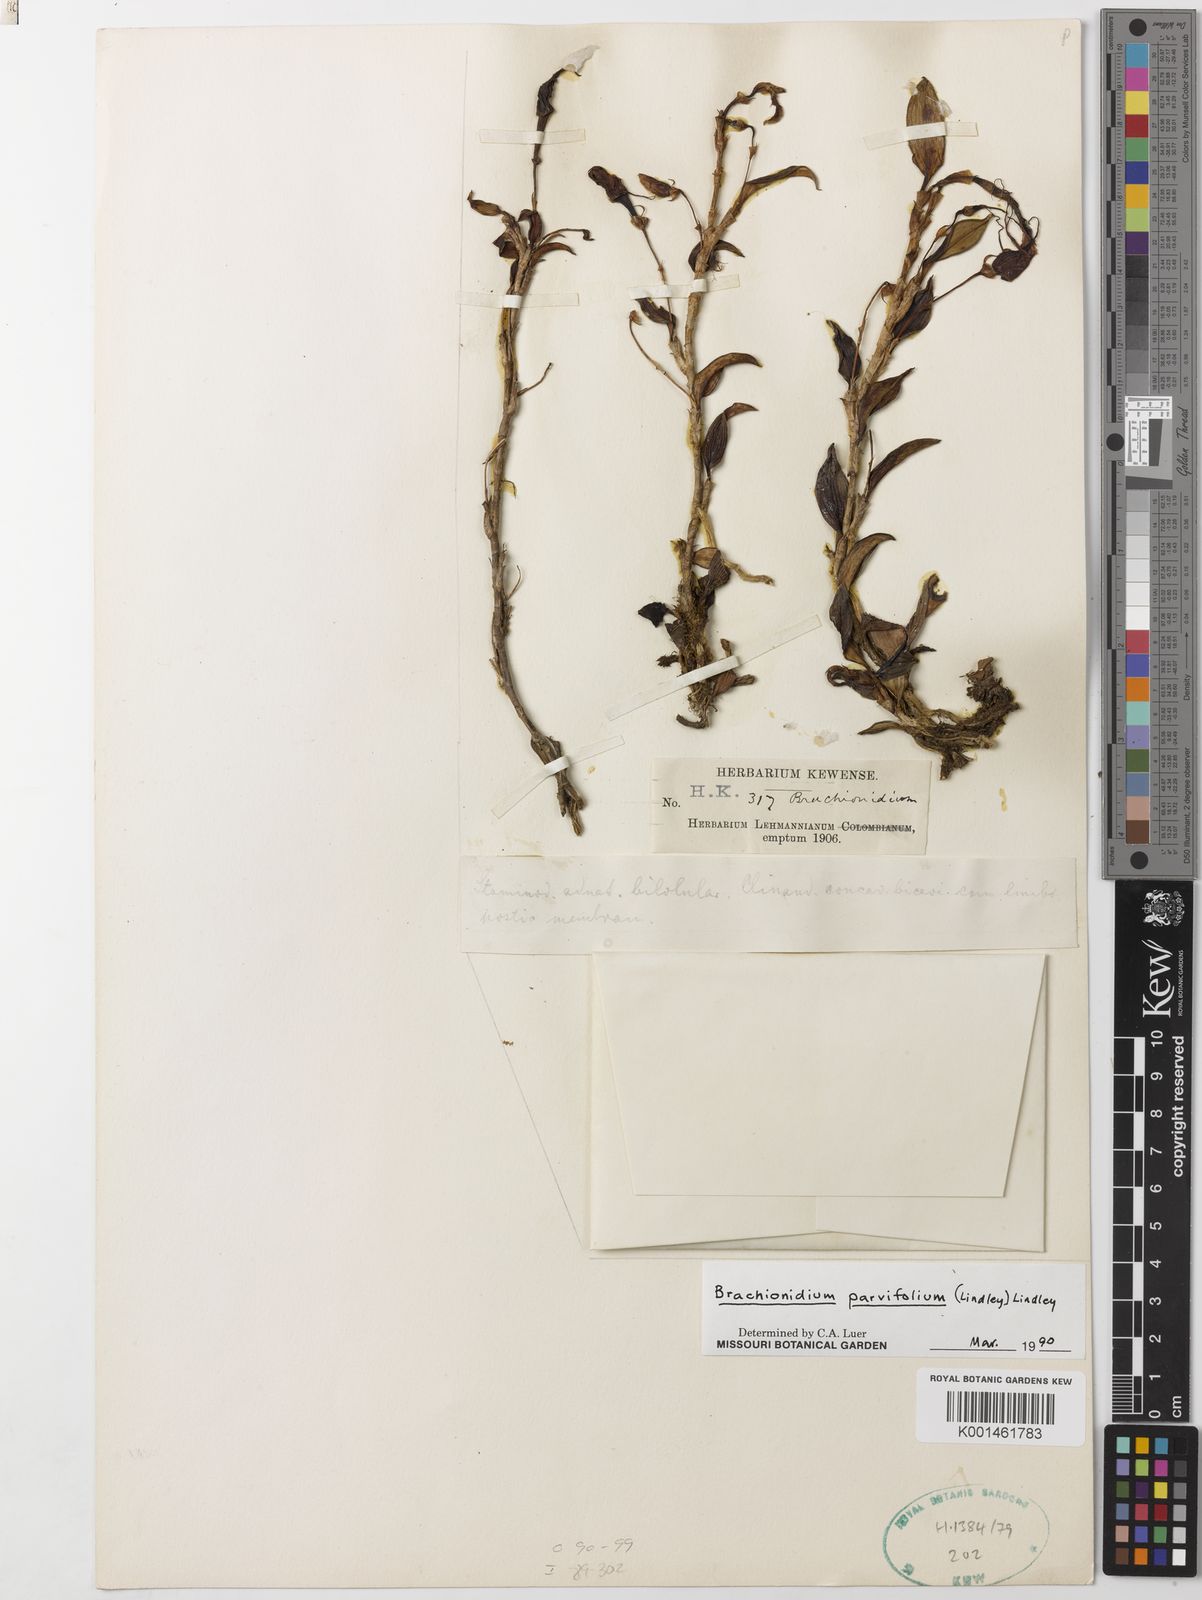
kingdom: Plantae
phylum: Tracheophyta
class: Liliopsida
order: Asparagales
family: Orchidaceae
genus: Brachionidium
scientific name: Brachionidium parvifolium
